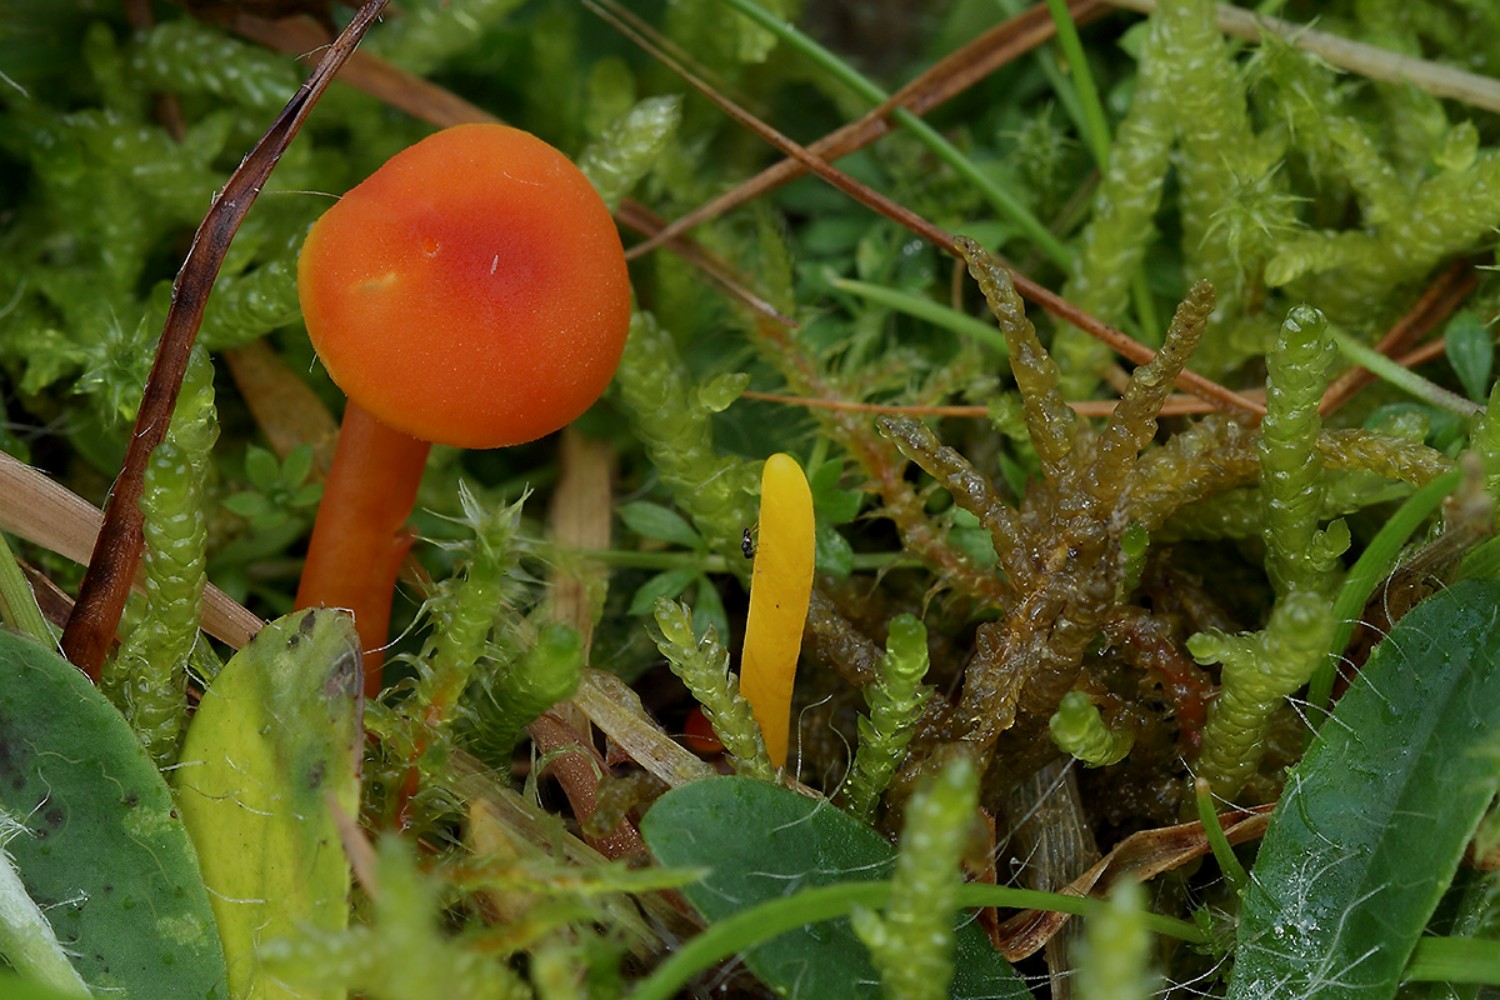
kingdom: Fungi
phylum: Basidiomycota
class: Agaricomycetes
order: Agaricales
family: Clavariaceae
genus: Clavulinopsis
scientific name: Clavulinopsis helvola
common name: orangegul køllesvamp
